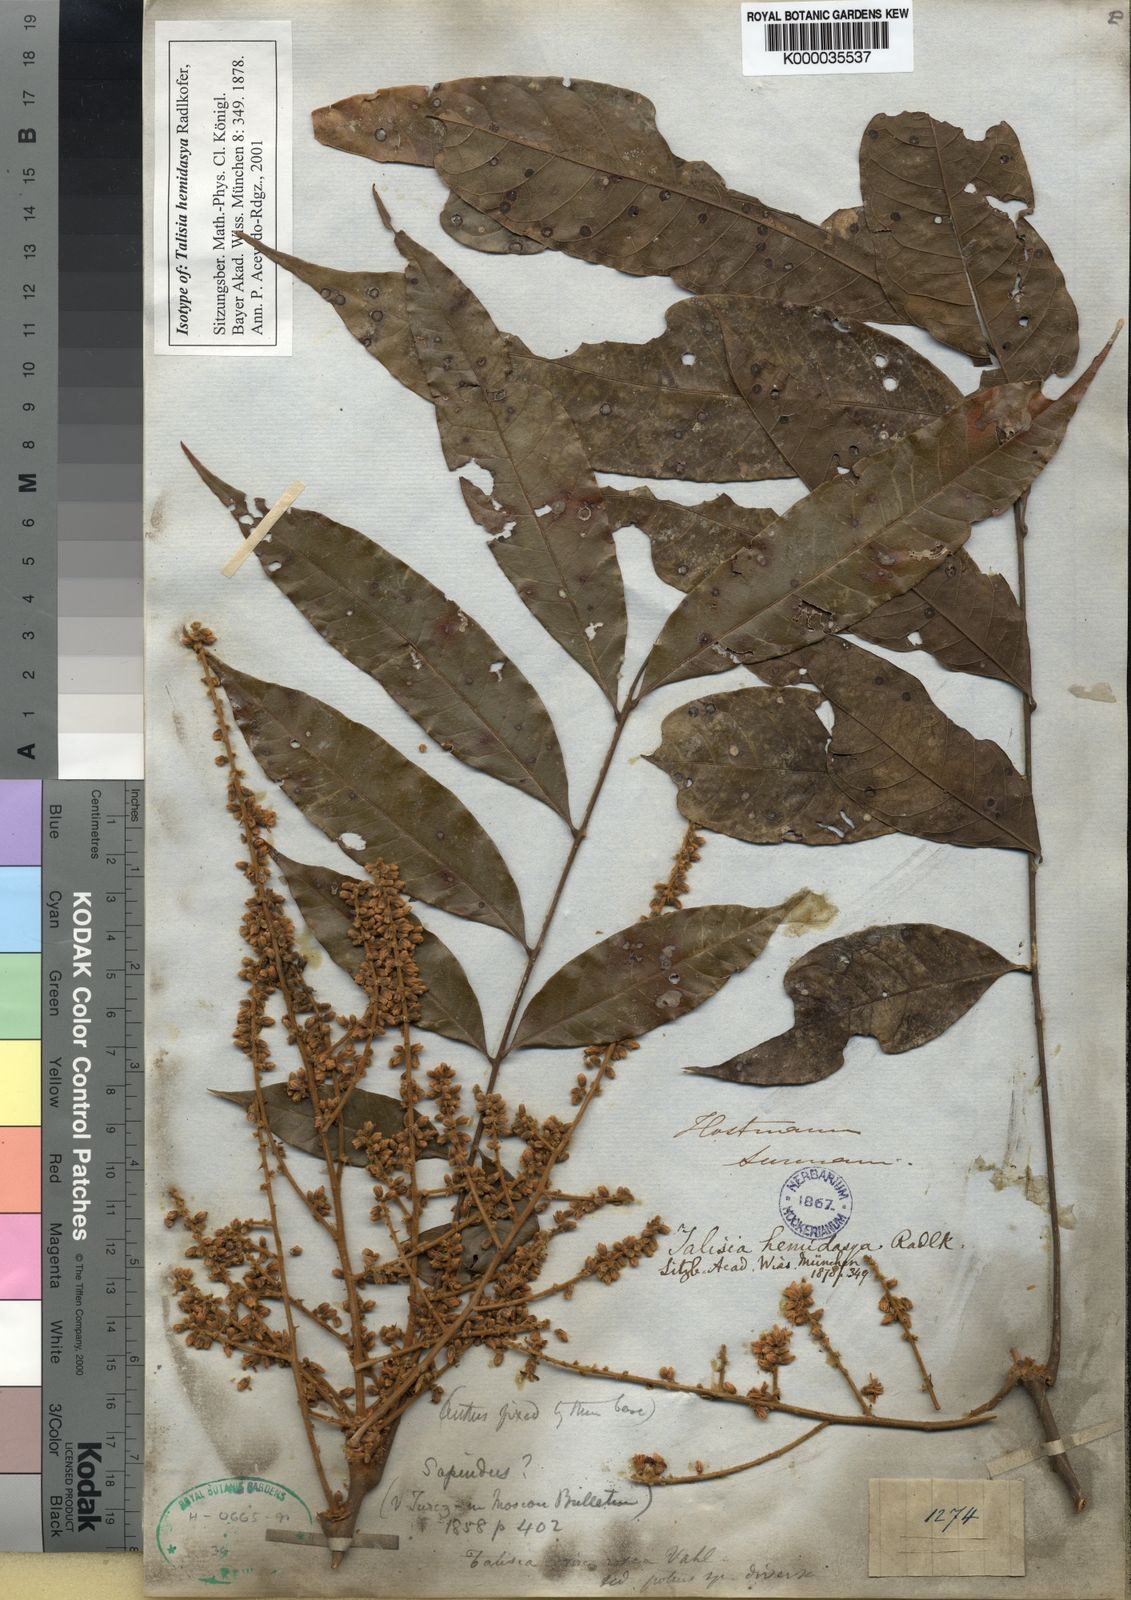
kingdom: Plantae
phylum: Tracheophyta
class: Magnoliopsida
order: Sapindales
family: Sapindaceae
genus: Talisia
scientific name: Talisia hemidasya
